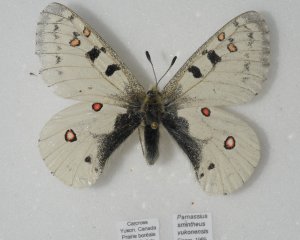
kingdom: Animalia
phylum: Arthropoda
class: Insecta
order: Lepidoptera
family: Papilionidae
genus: Parnassius
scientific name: Parnassius smintheus
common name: Rocky Mountain Parnassian
